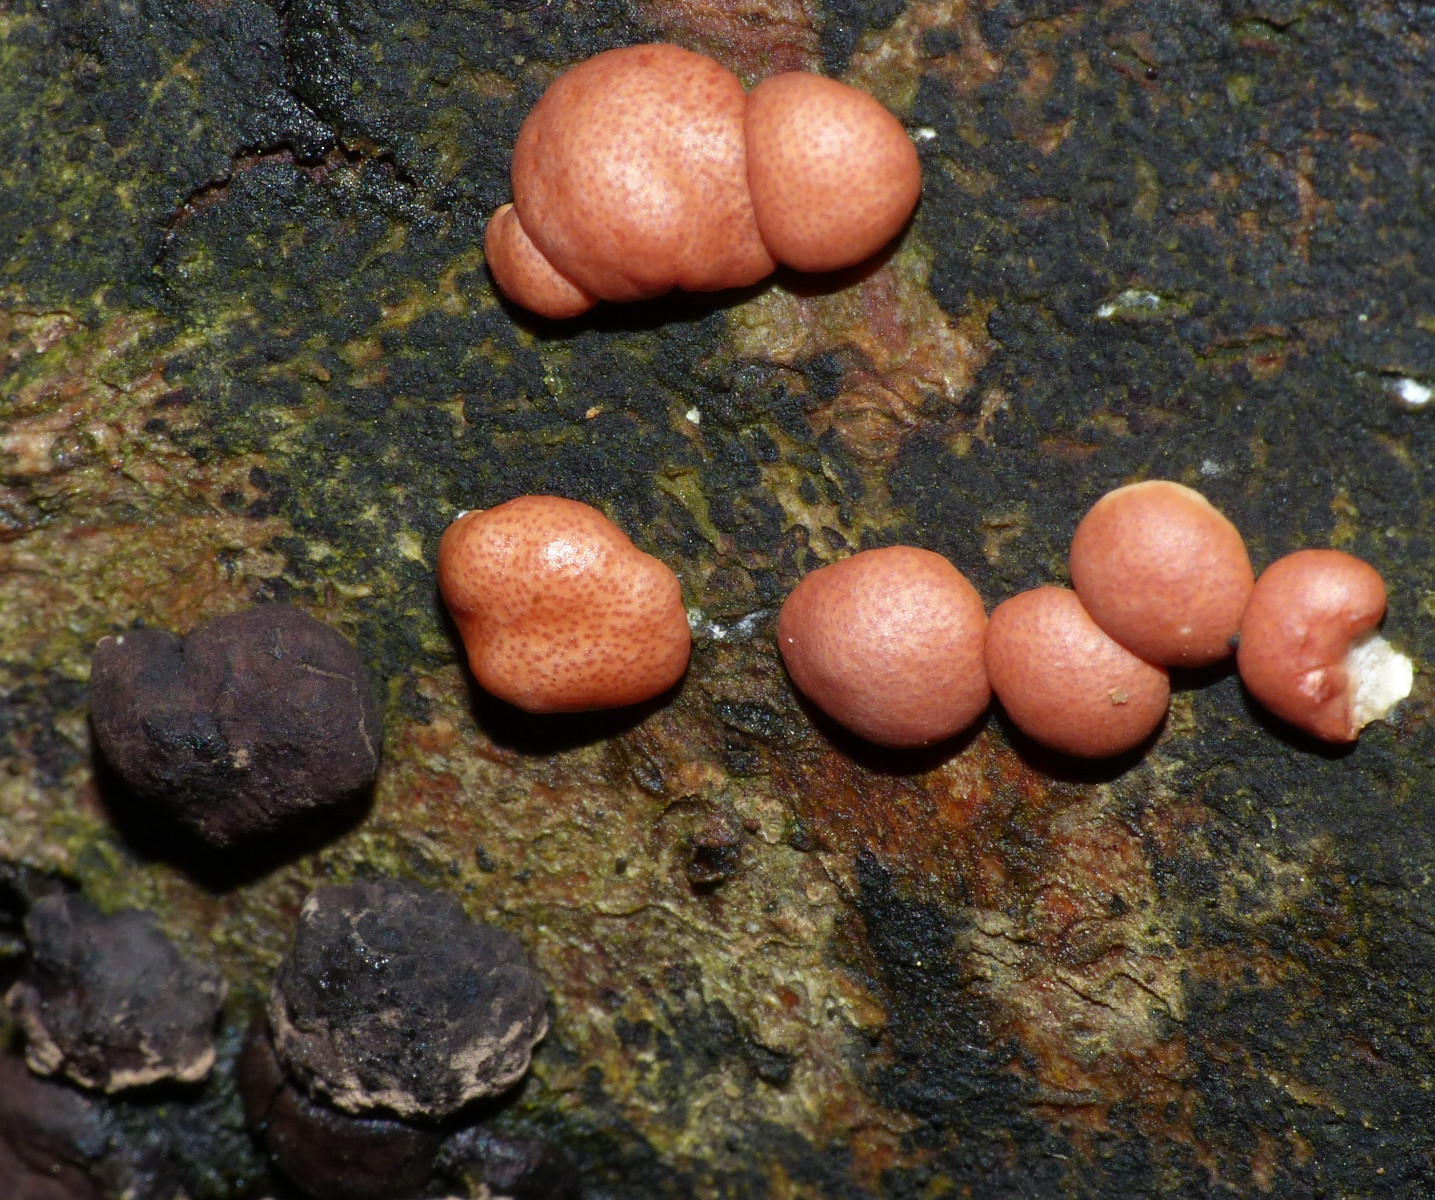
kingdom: Fungi
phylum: Ascomycota
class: Sordariomycetes
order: Hypocreales
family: Hypocreaceae
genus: Trichoderma
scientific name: Trichoderma europaeum
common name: rosabrun kødkerne
